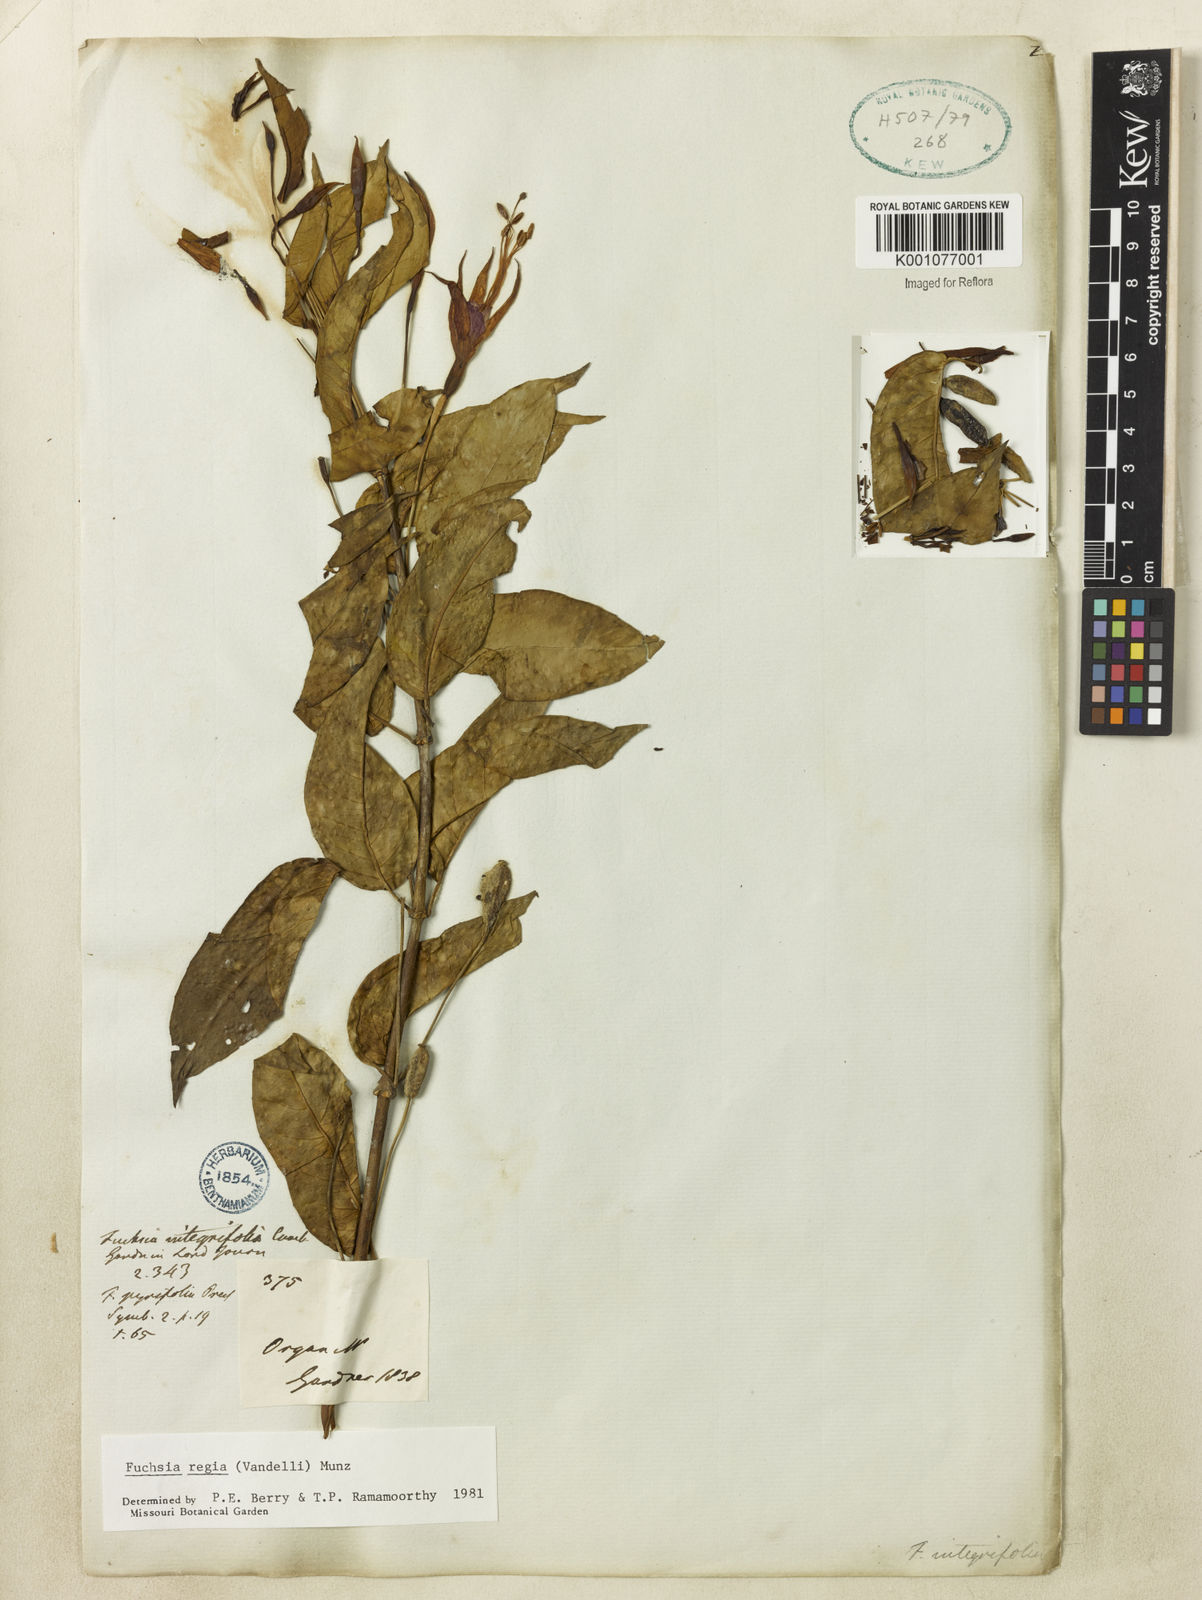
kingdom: Plantae
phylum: Tracheophyta
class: Magnoliopsida
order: Myrtales
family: Onagraceae
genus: Fuchsia
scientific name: Fuchsia regia
